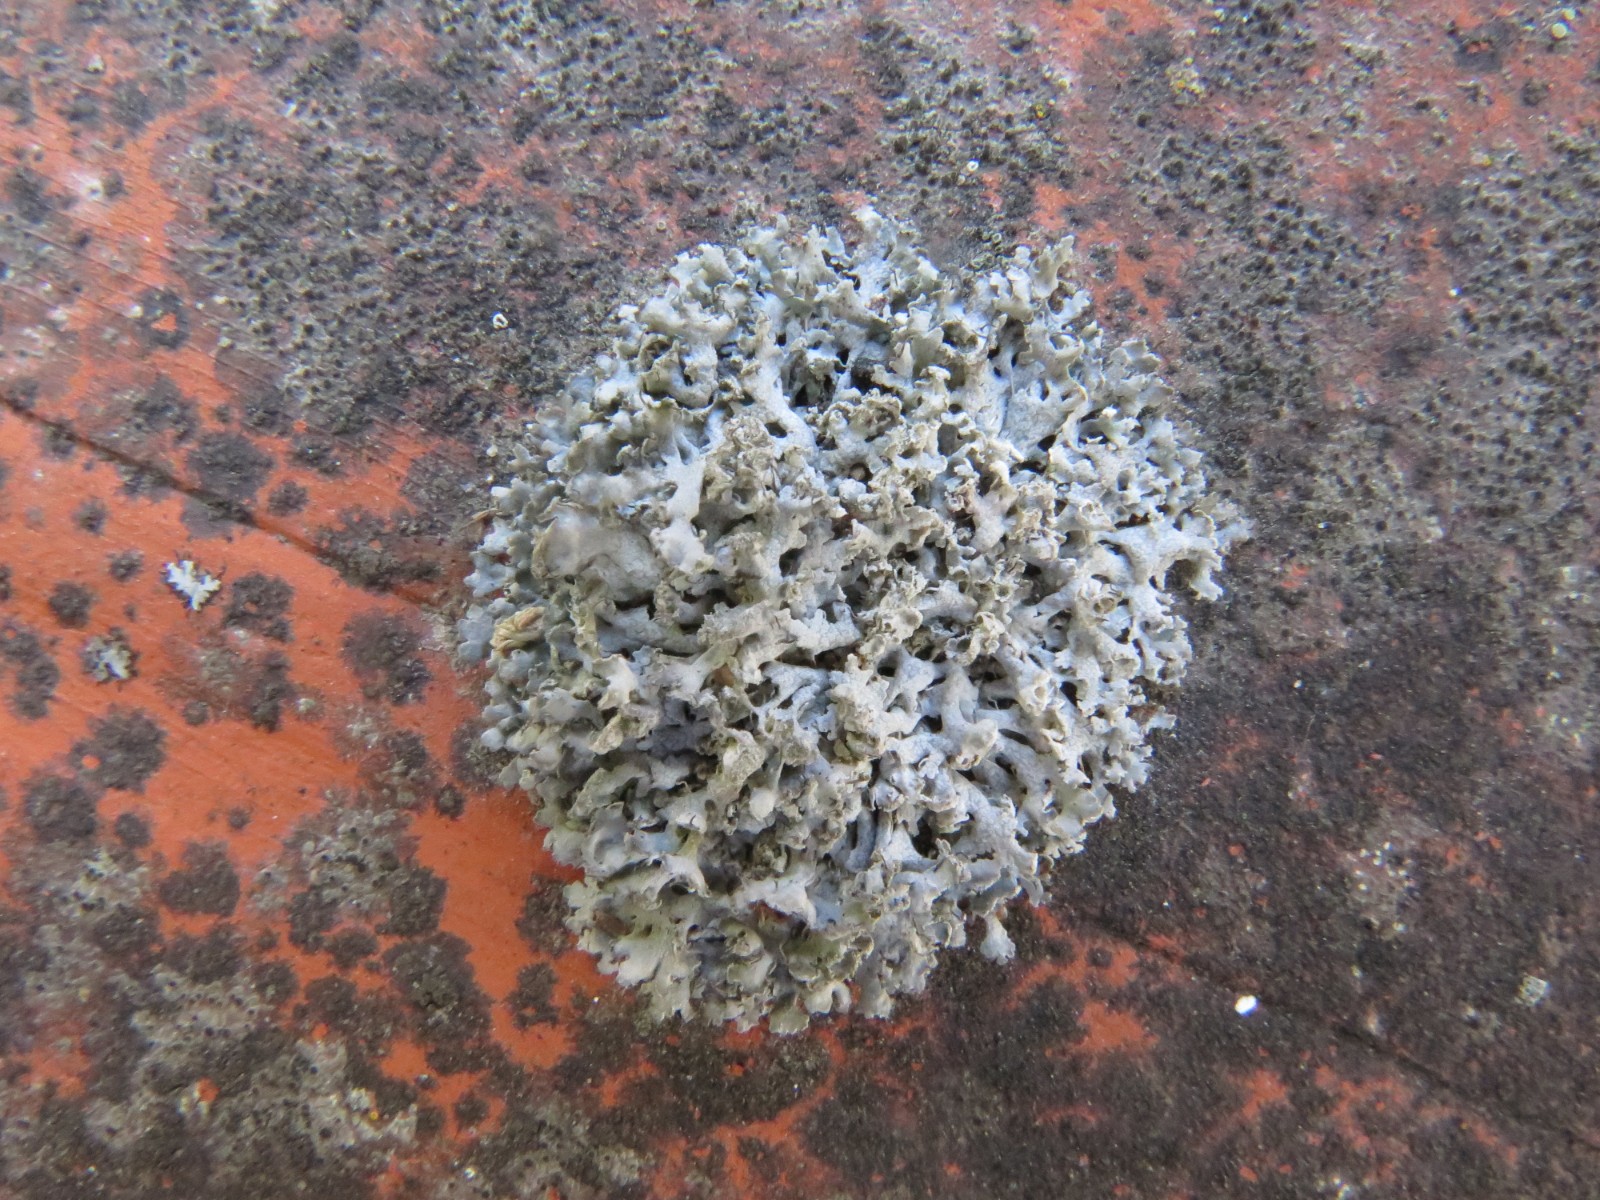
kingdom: Fungi
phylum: Ascomycota
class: Lecanoromycetes
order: Caliciales
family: Physciaceae
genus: Physcia
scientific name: Physcia adscendens
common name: hætte-rosetlav
